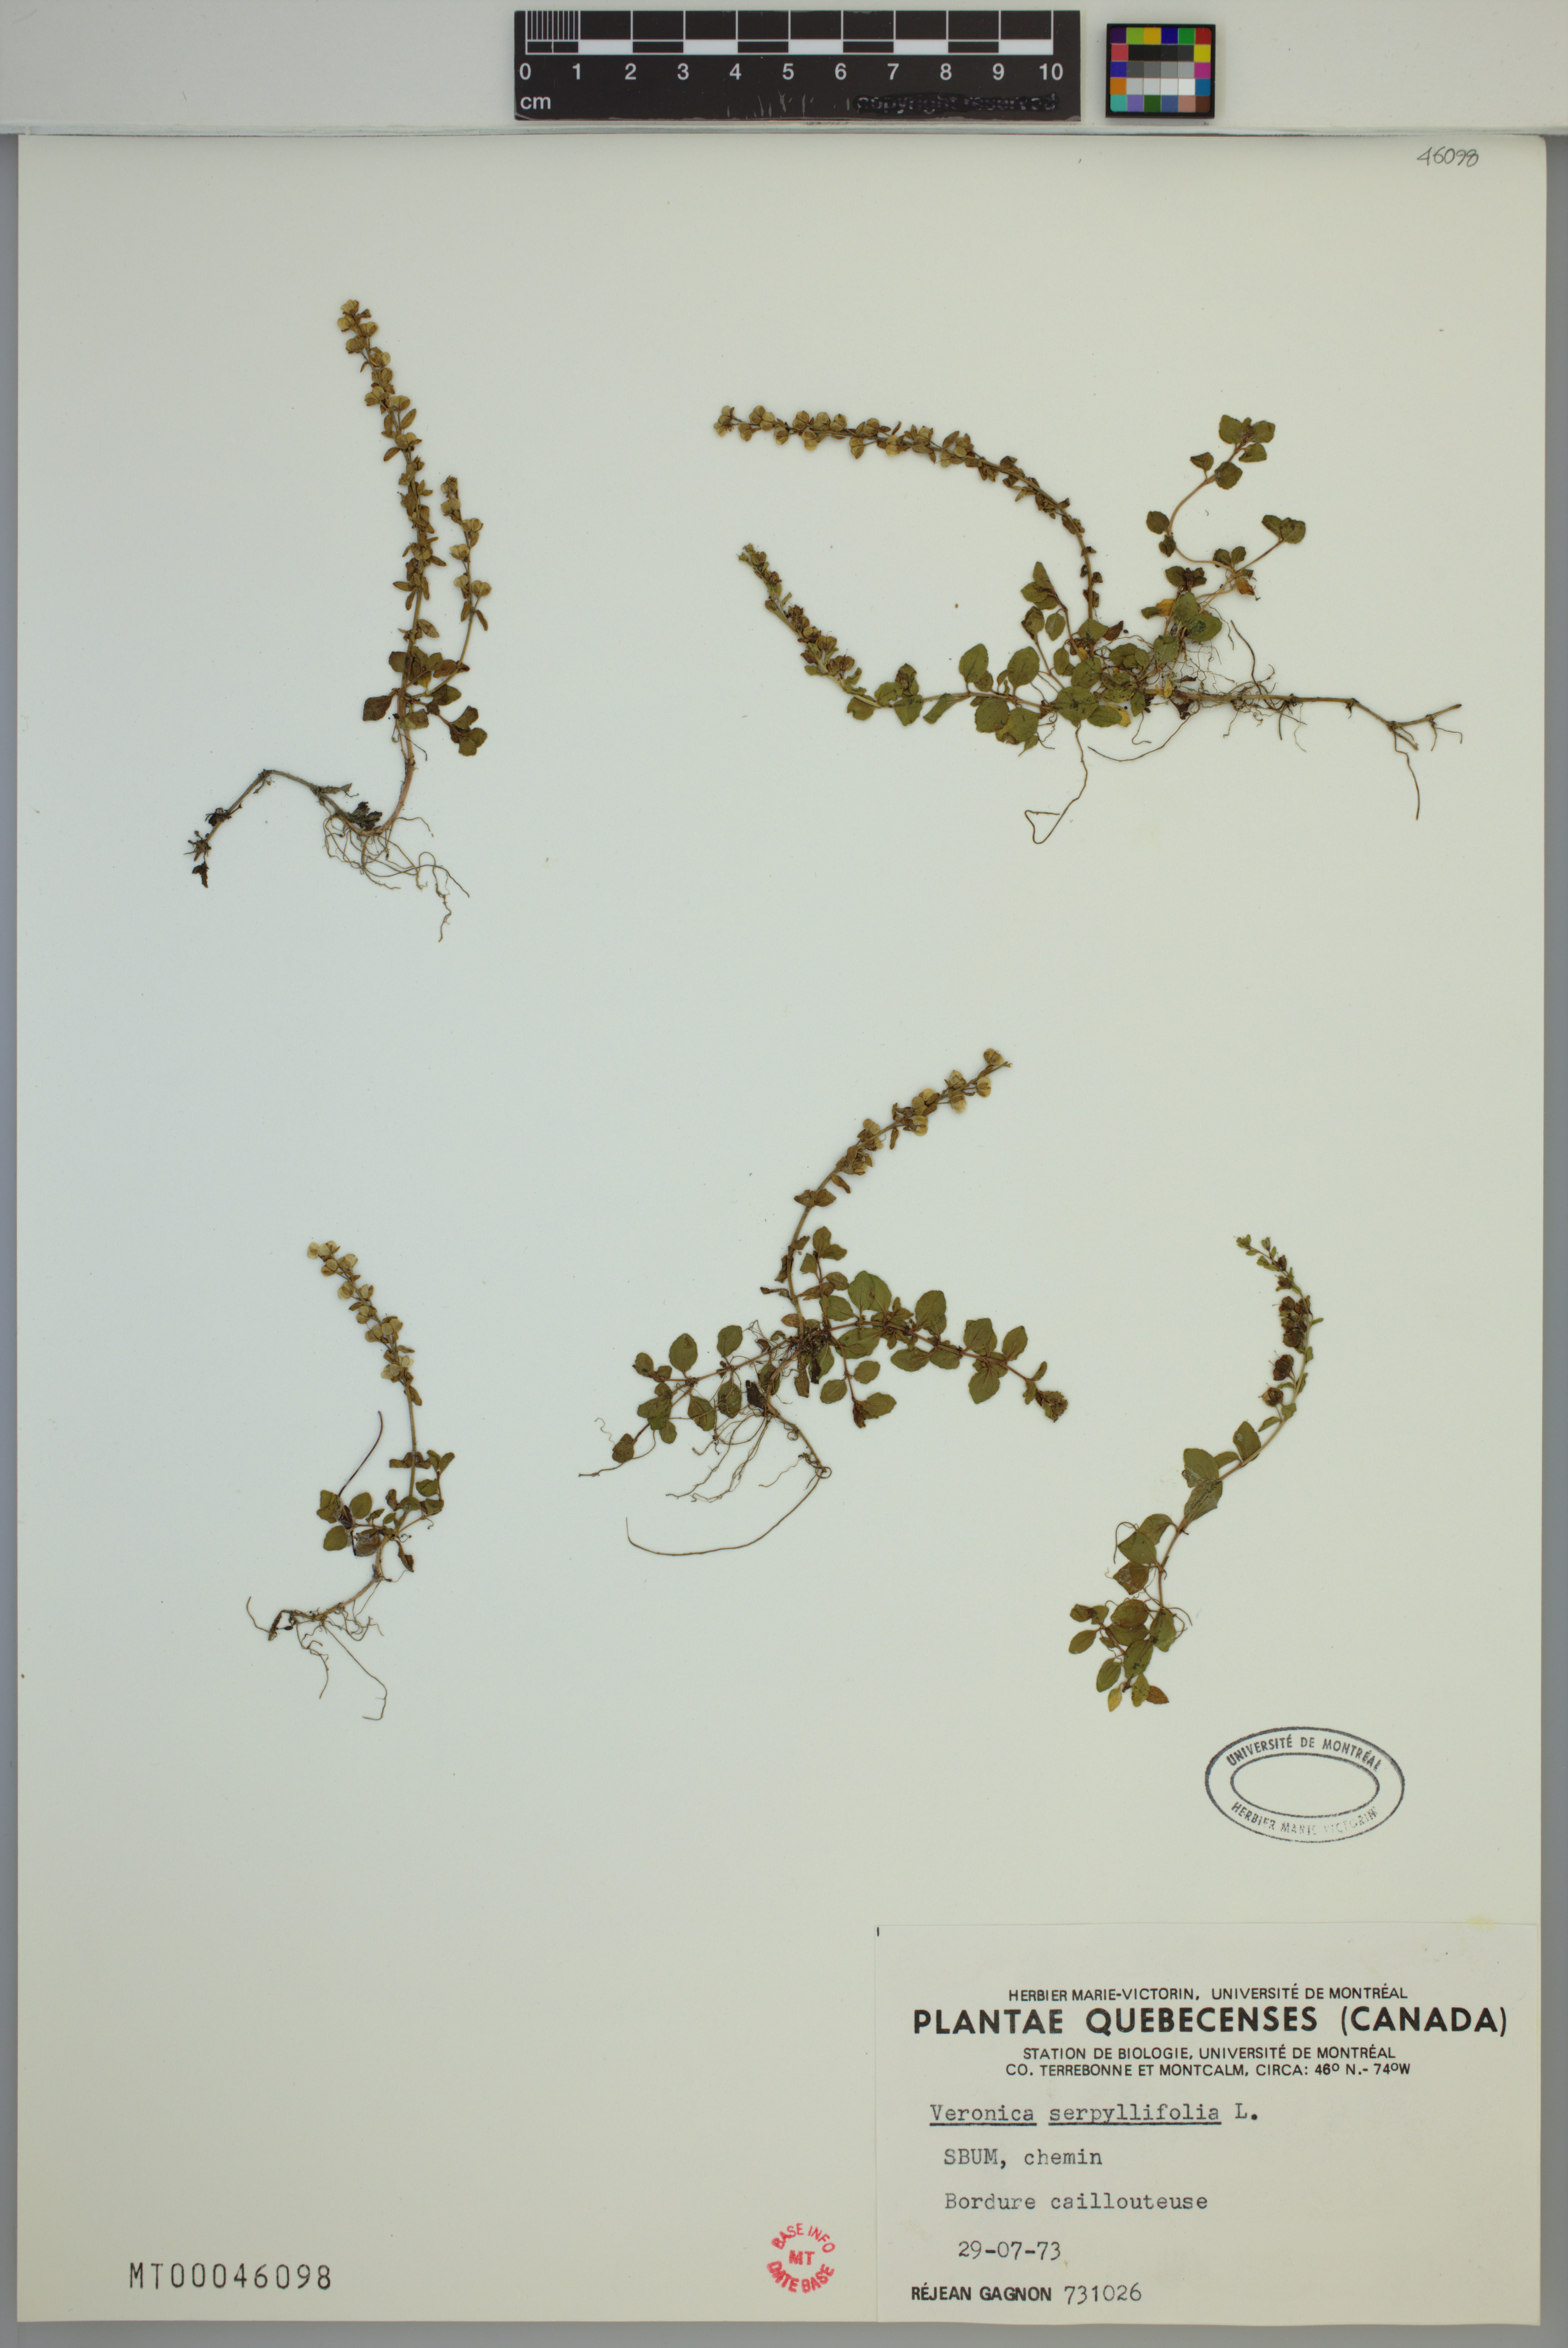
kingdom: Plantae
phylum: Tracheophyta
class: Magnoliopsida
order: Lamiales
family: Plantaginaceae
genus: Veronica
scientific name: Veronica serpyllifolia
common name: Thyme-leaved speedwell
